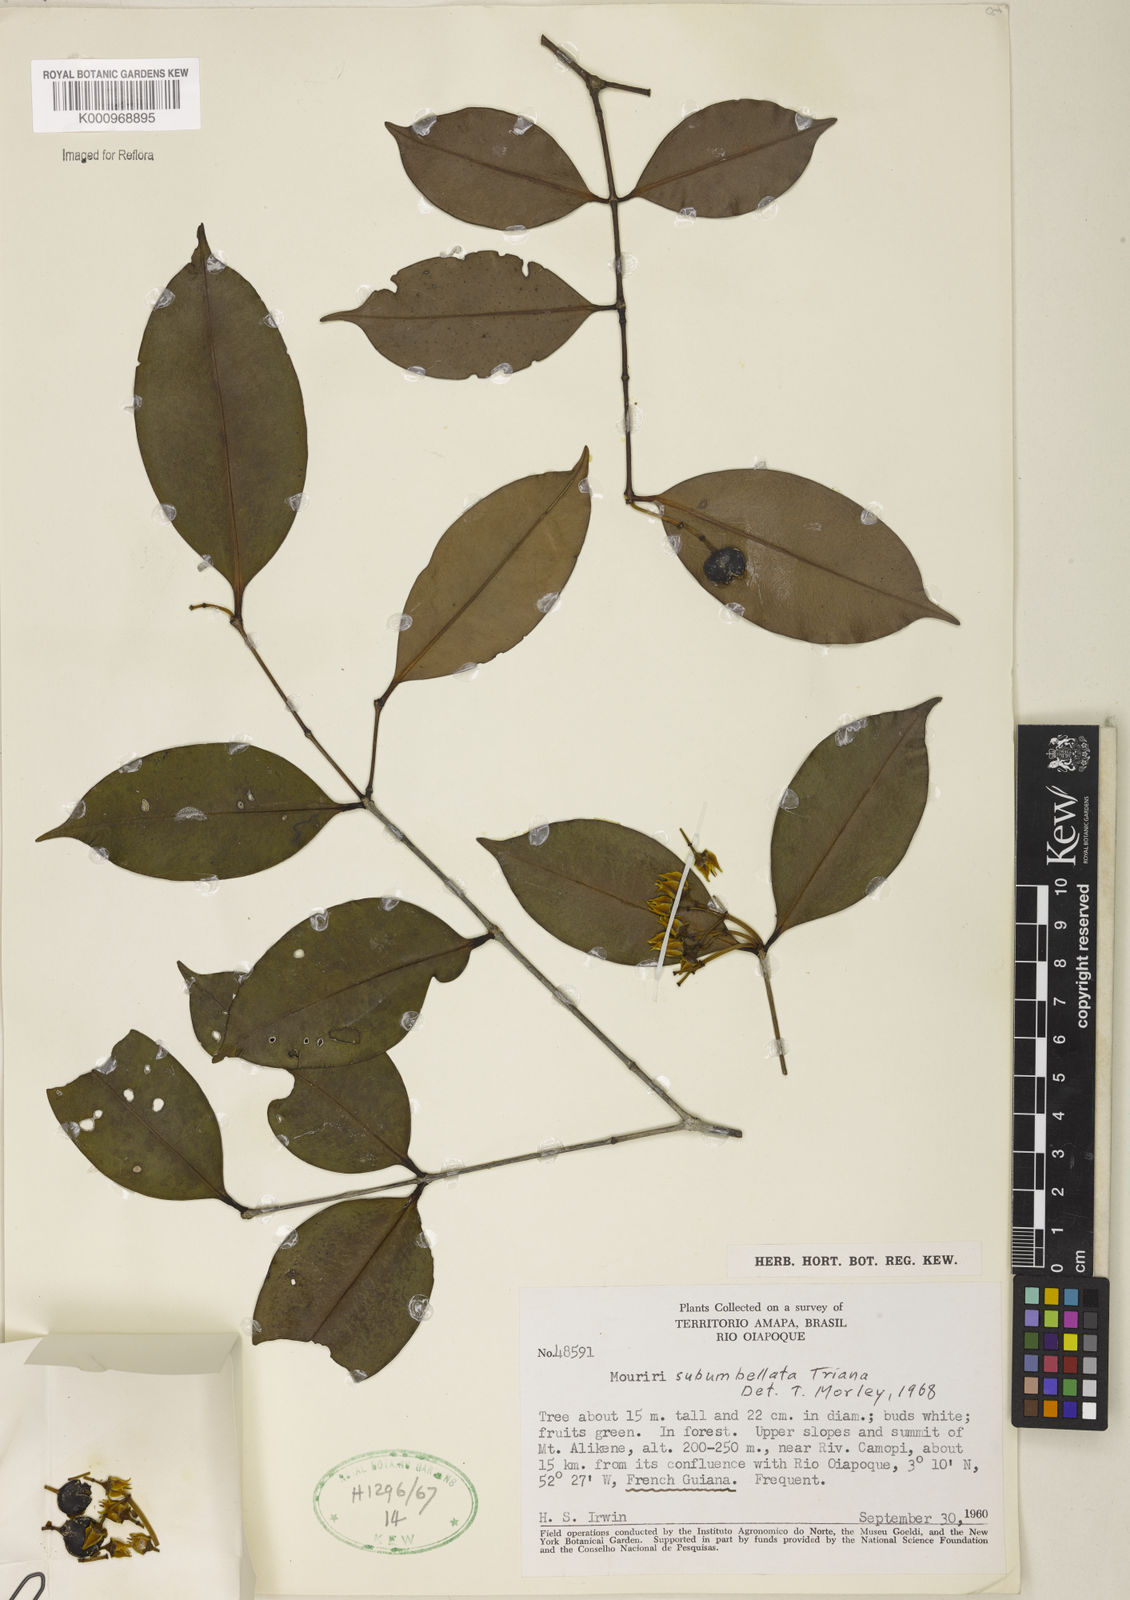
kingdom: Plantae
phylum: Tracheophyta
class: Magnoliopsida
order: Myrtales
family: Melastomataceae
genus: Mouriri
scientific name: Mouriri subumbellata
